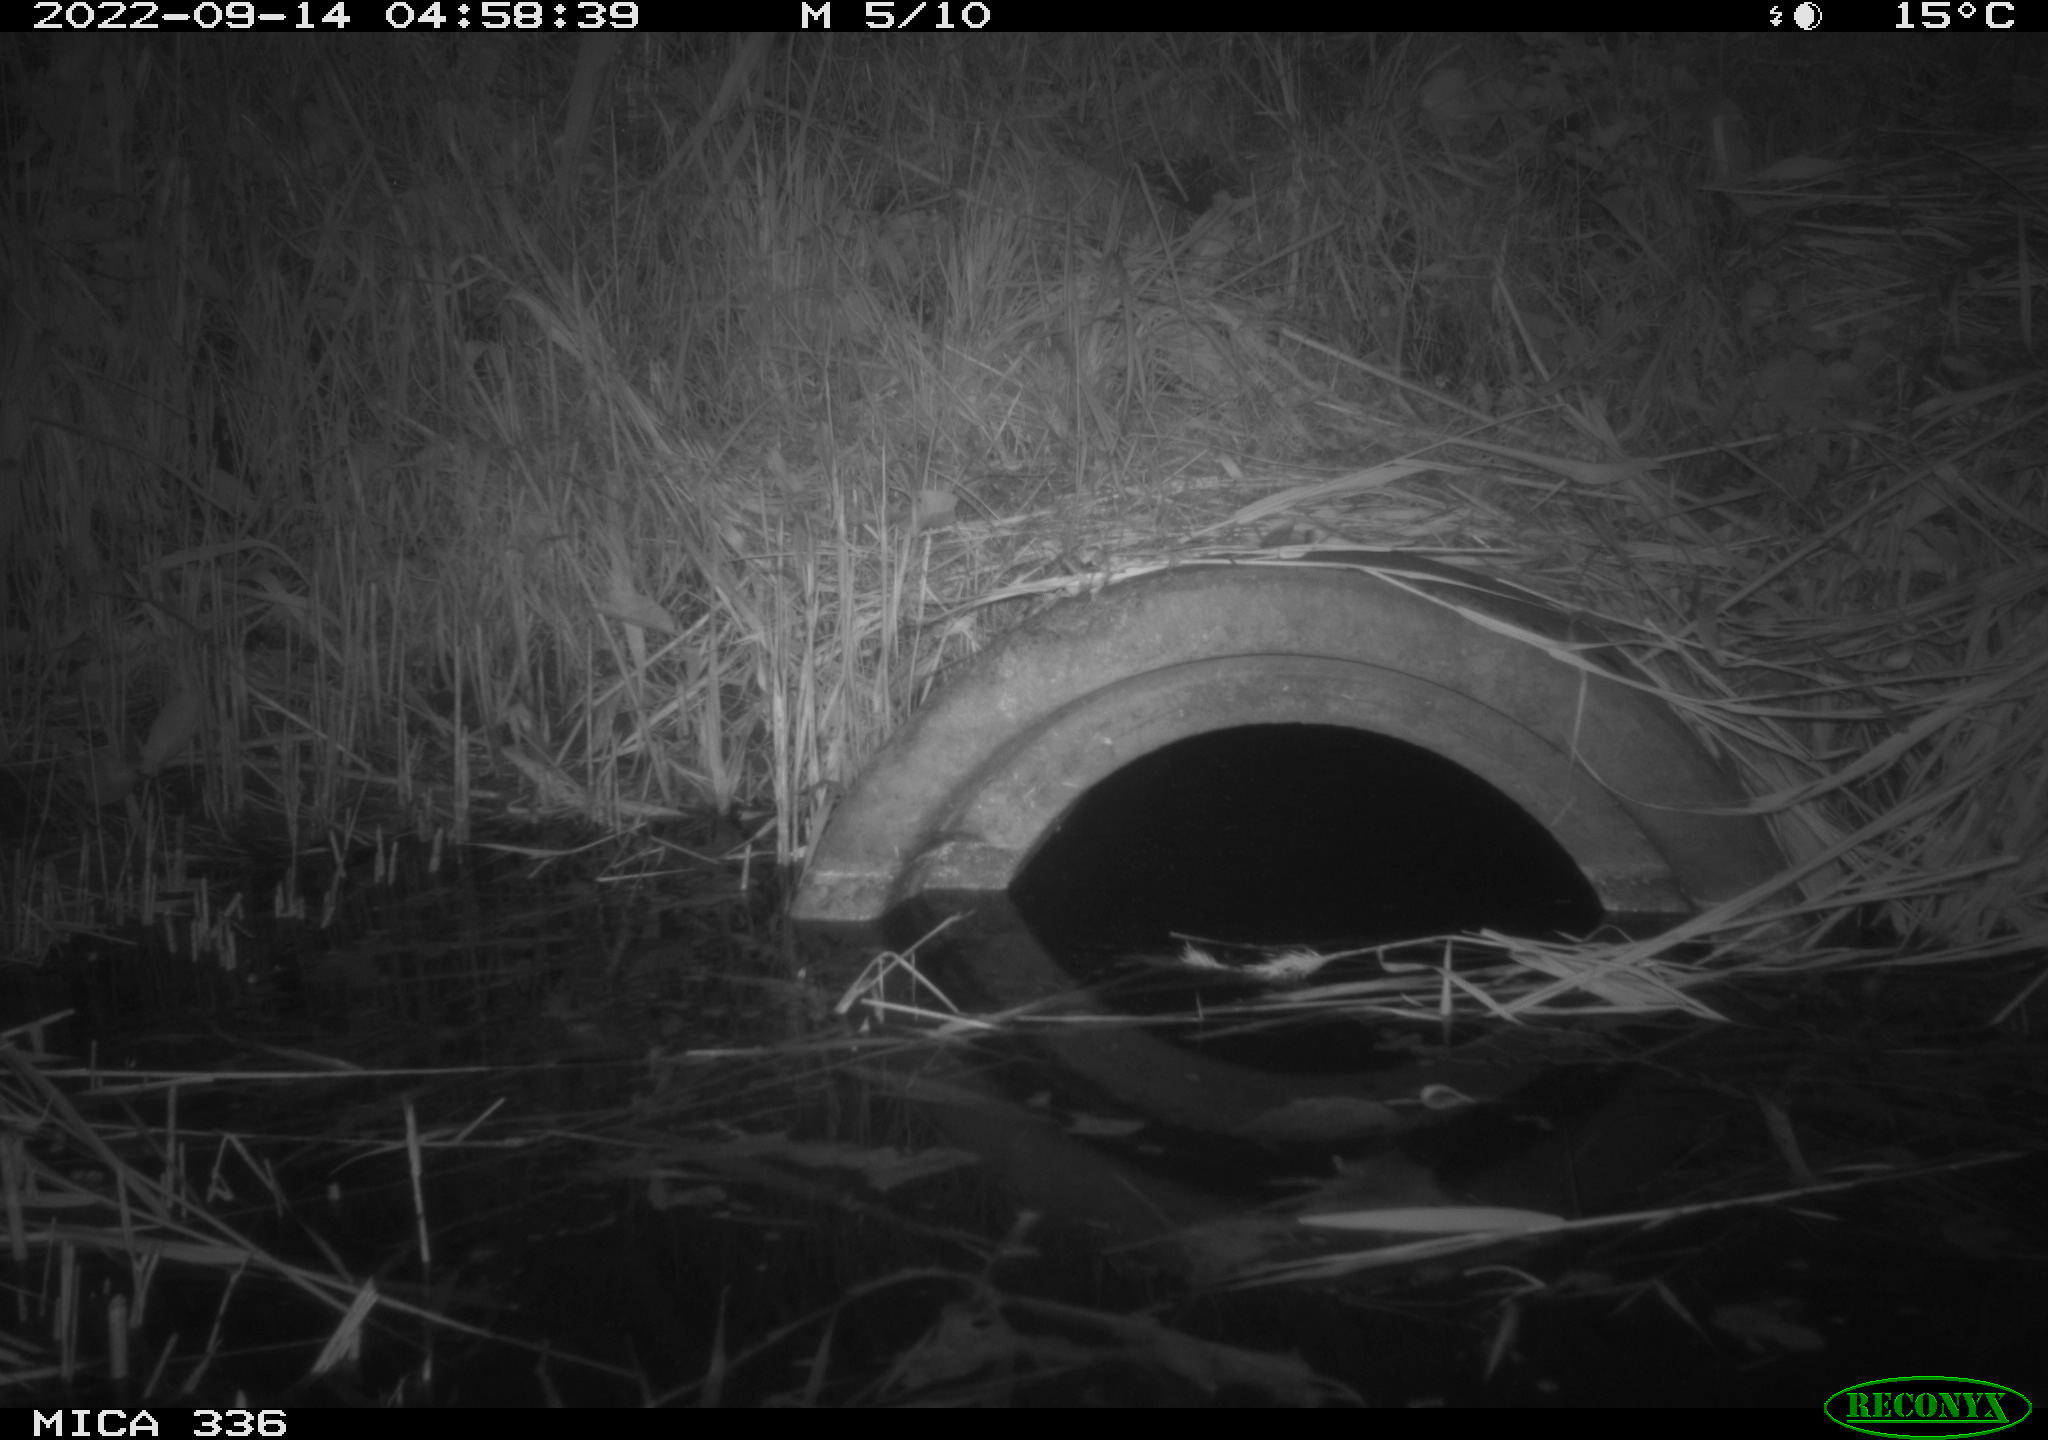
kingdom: Animalia
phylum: Chordata
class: Mammalia
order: Rodentia
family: Muridae
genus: Rattus
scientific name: Rattus norvegicus
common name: Brown rat
